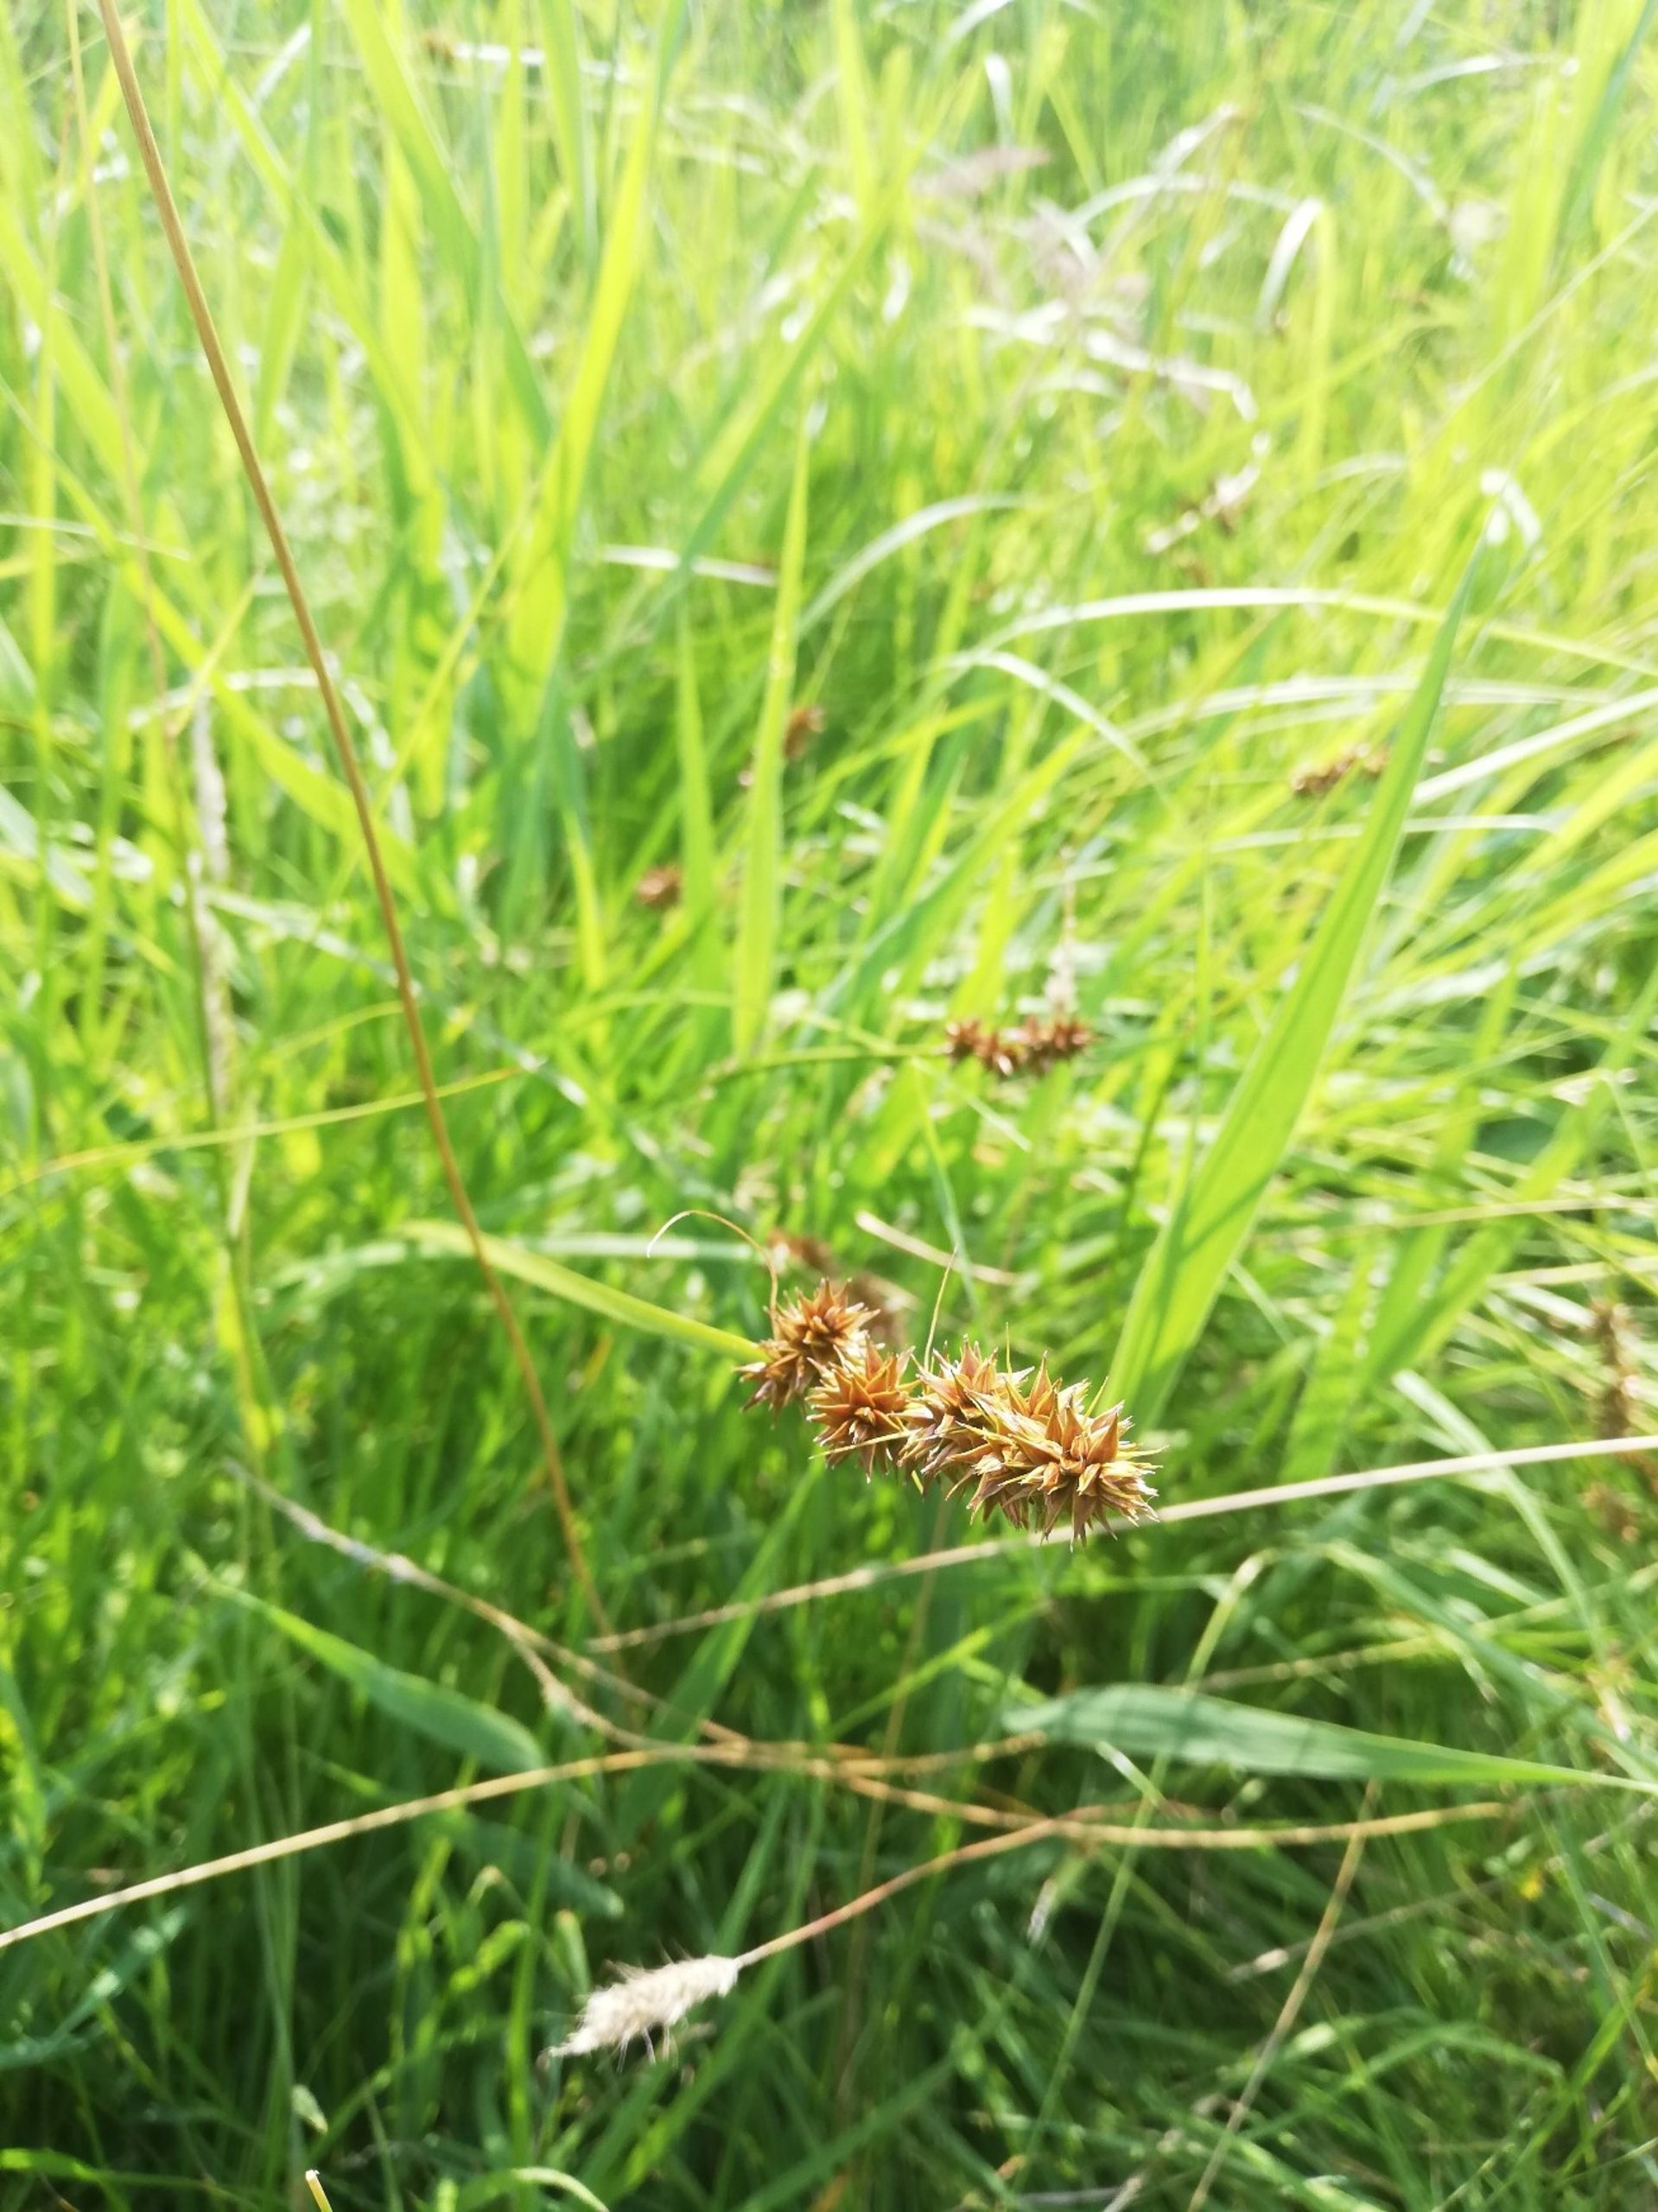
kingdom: Plantae
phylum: Tracheophyta
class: Liliopsida
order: Poales
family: Cyperaceae
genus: Carex
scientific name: Carex otrubae
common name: Sylt-star
